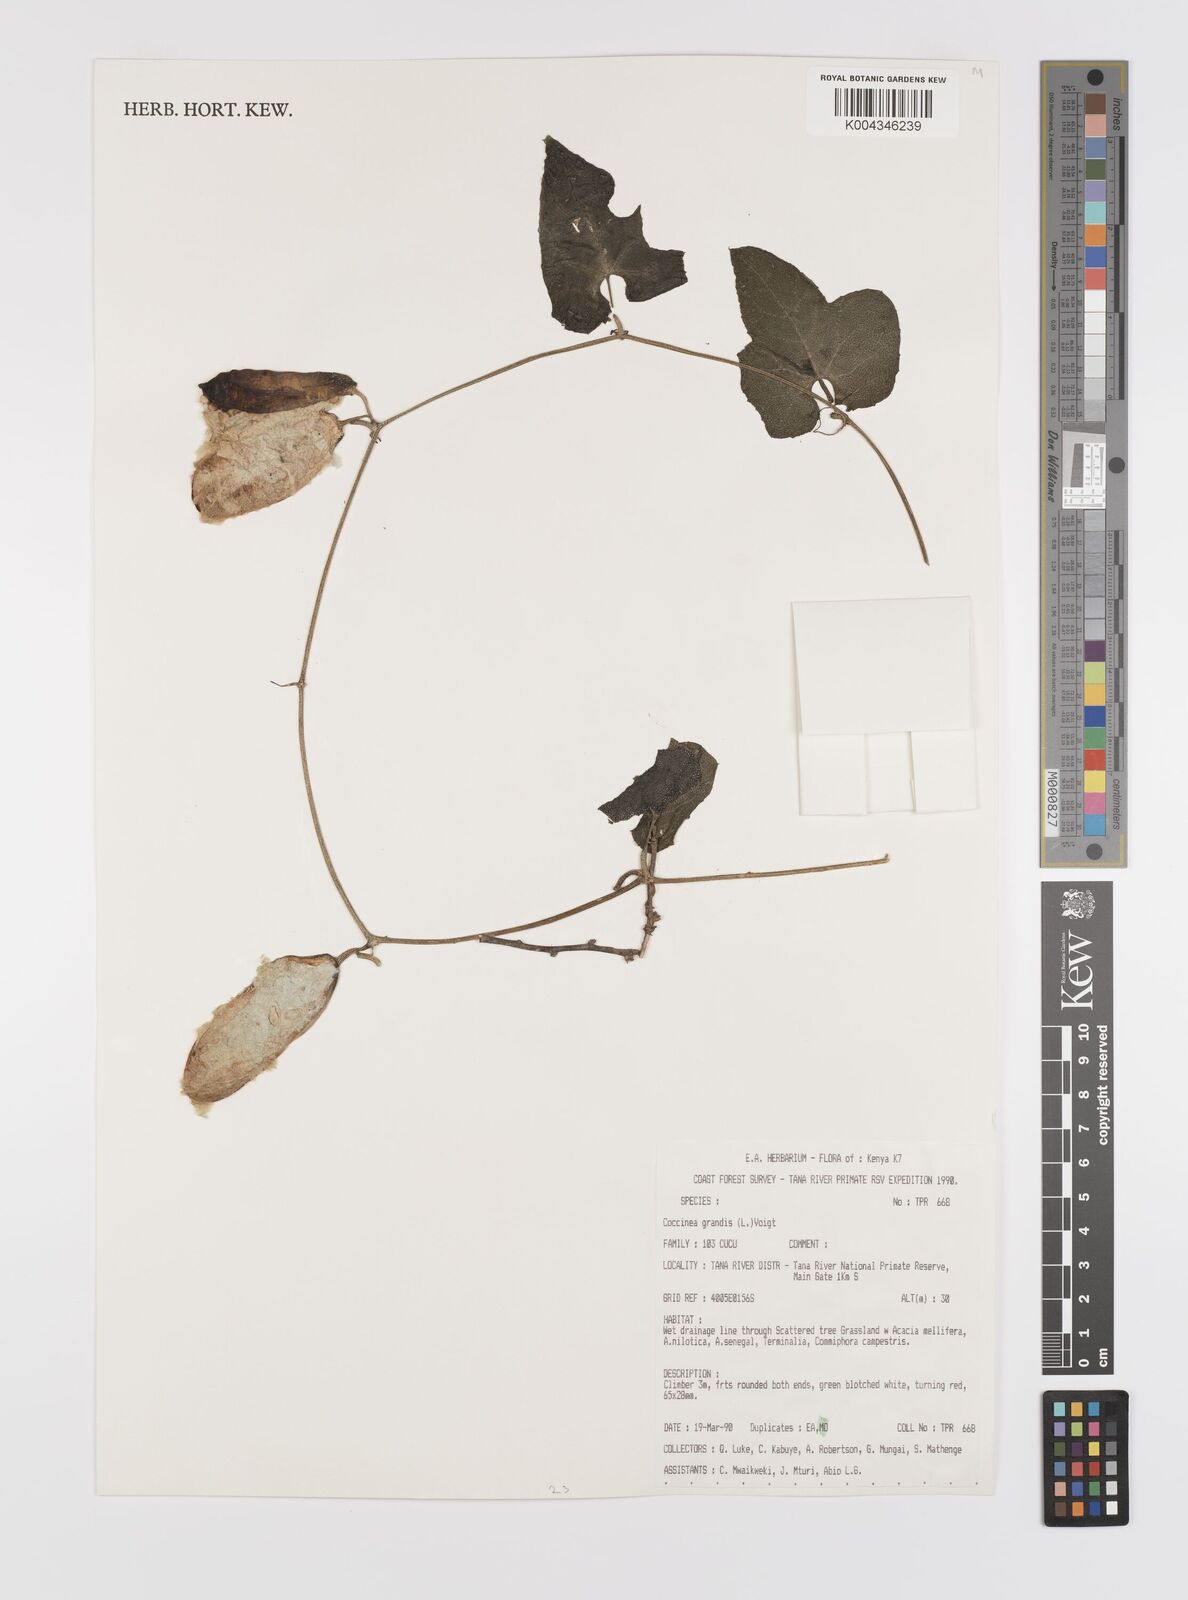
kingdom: Plantae
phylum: Tracheophyta
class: Magnoliopsida
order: Cucurbitales
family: Cucurbitaceae
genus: Coccinia
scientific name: Coccinia grandis
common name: Ivy gourd
